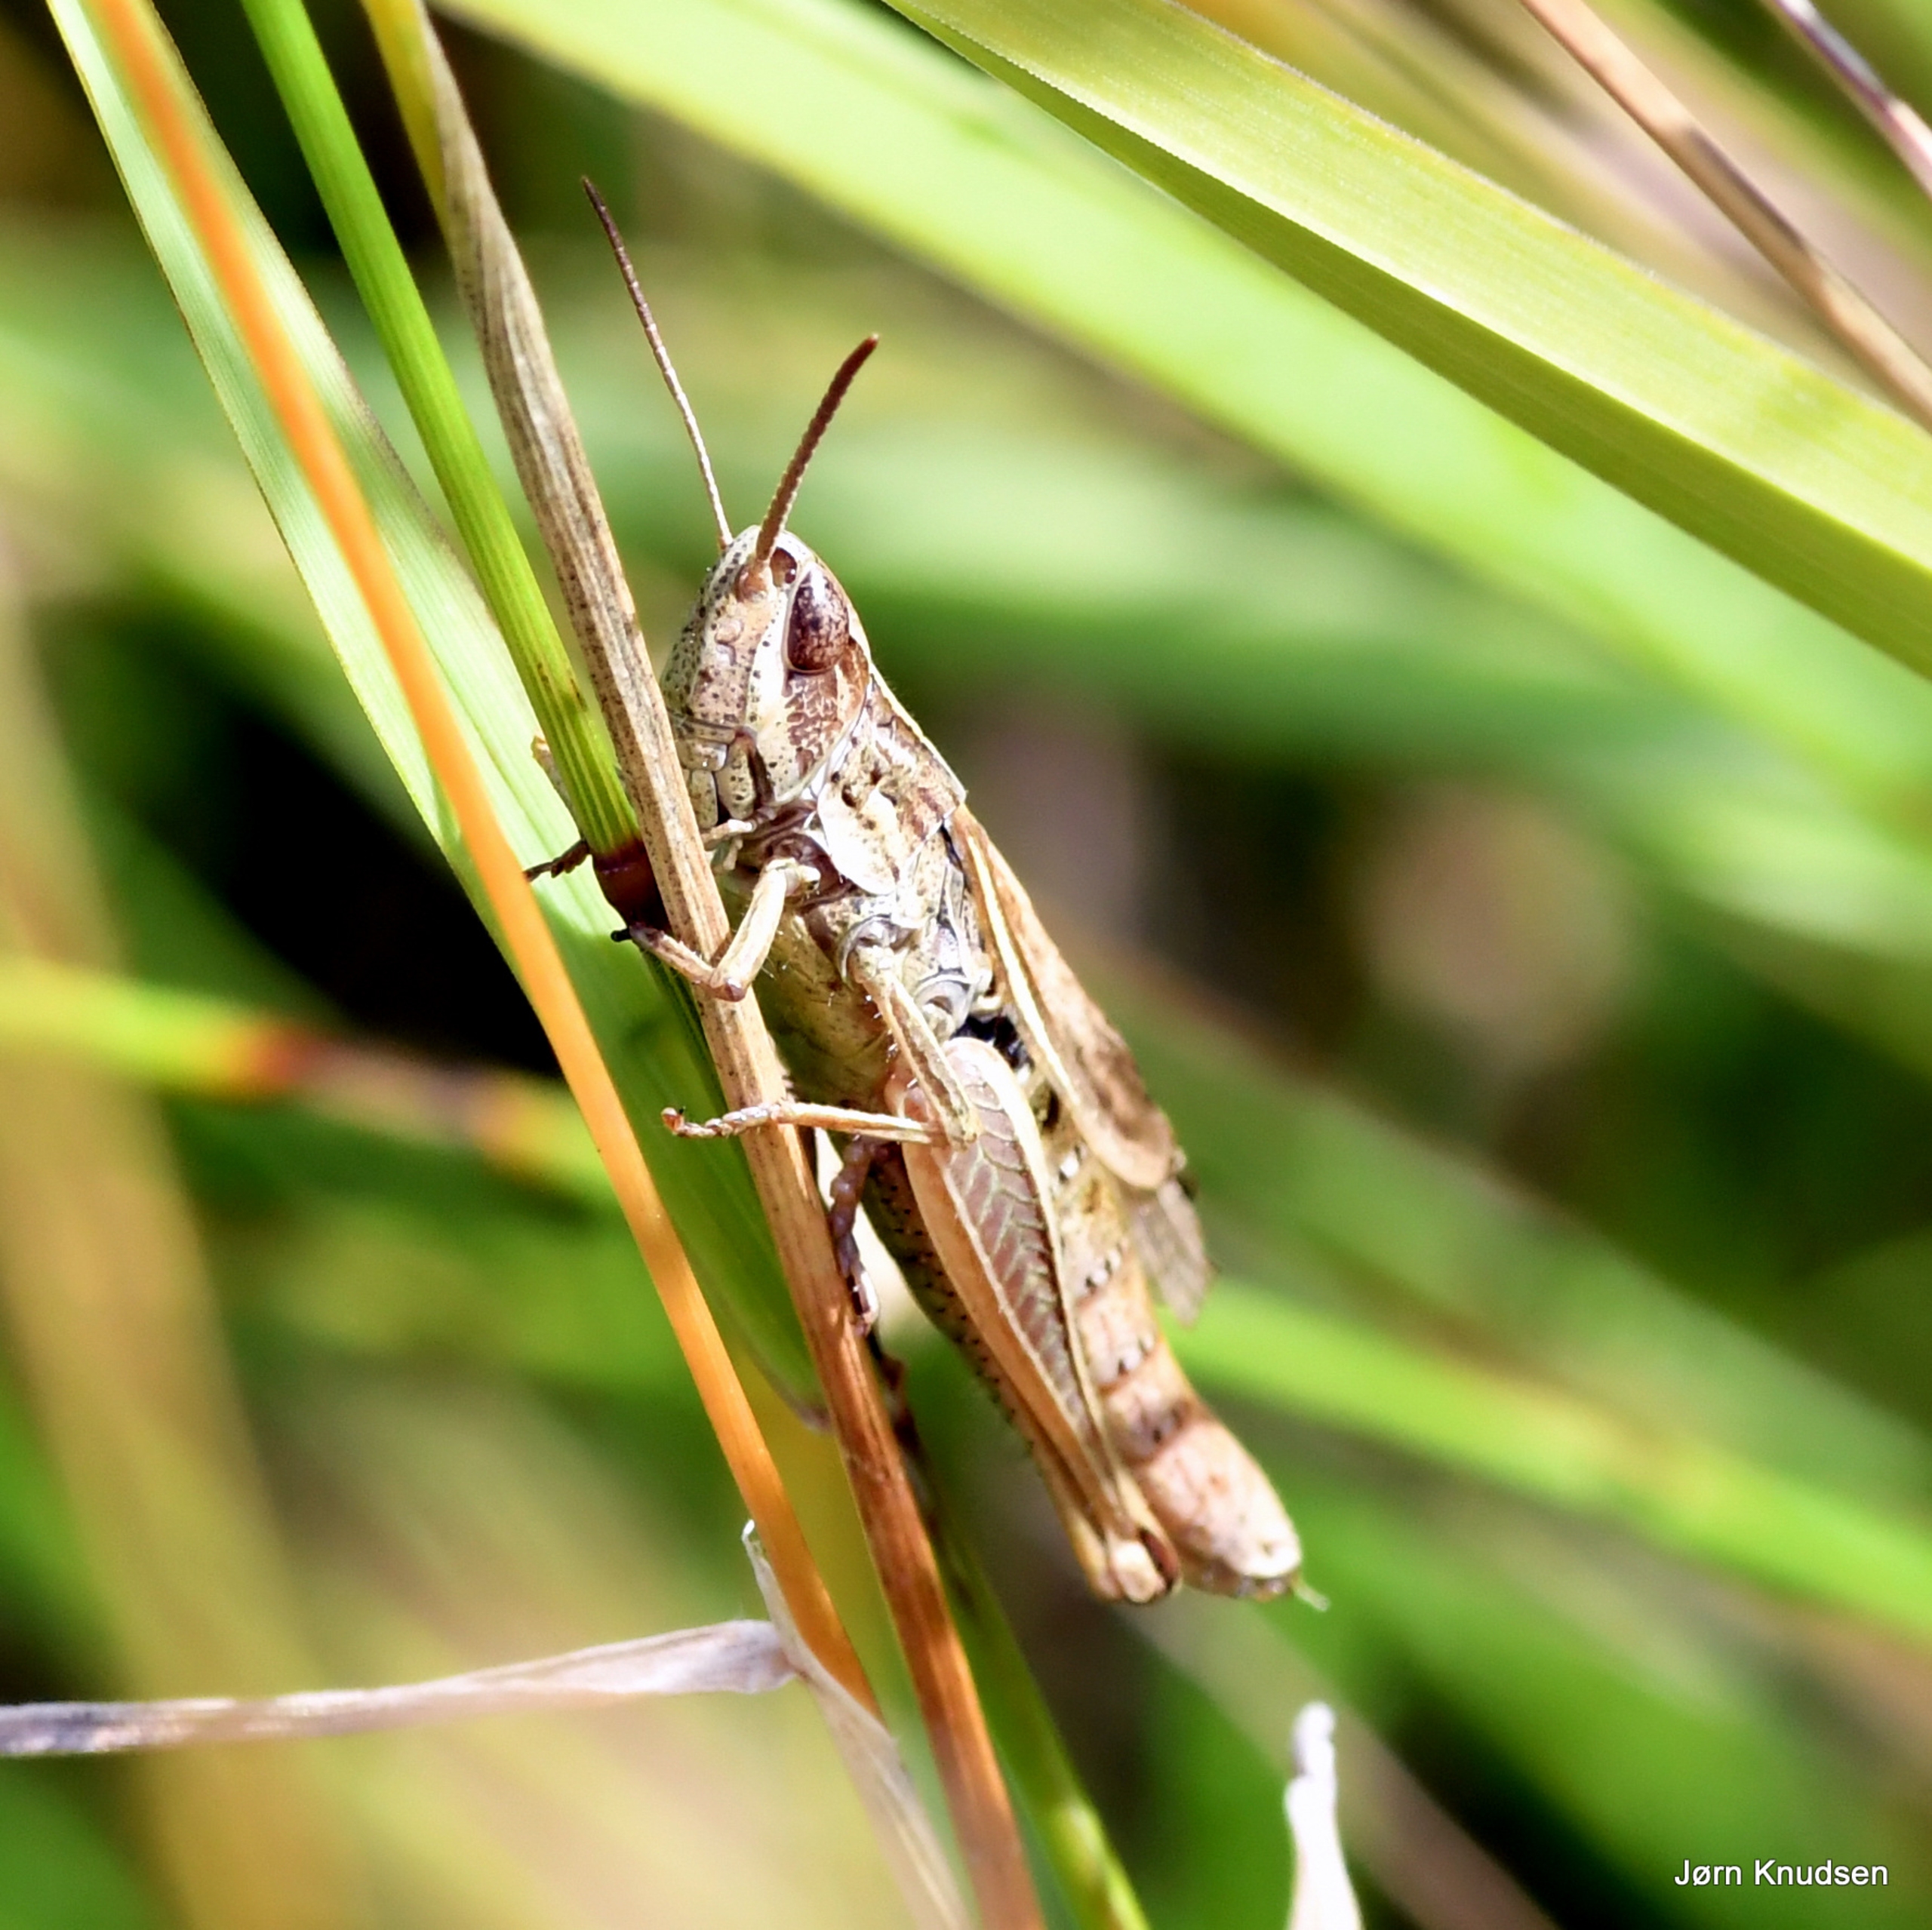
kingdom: Animalia
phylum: Arthropoda
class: Insecta
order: Orthoptera
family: Acrididae
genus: Chorthippus
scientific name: Chorthippus albomarginatus
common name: Strandengsgræshoppe
